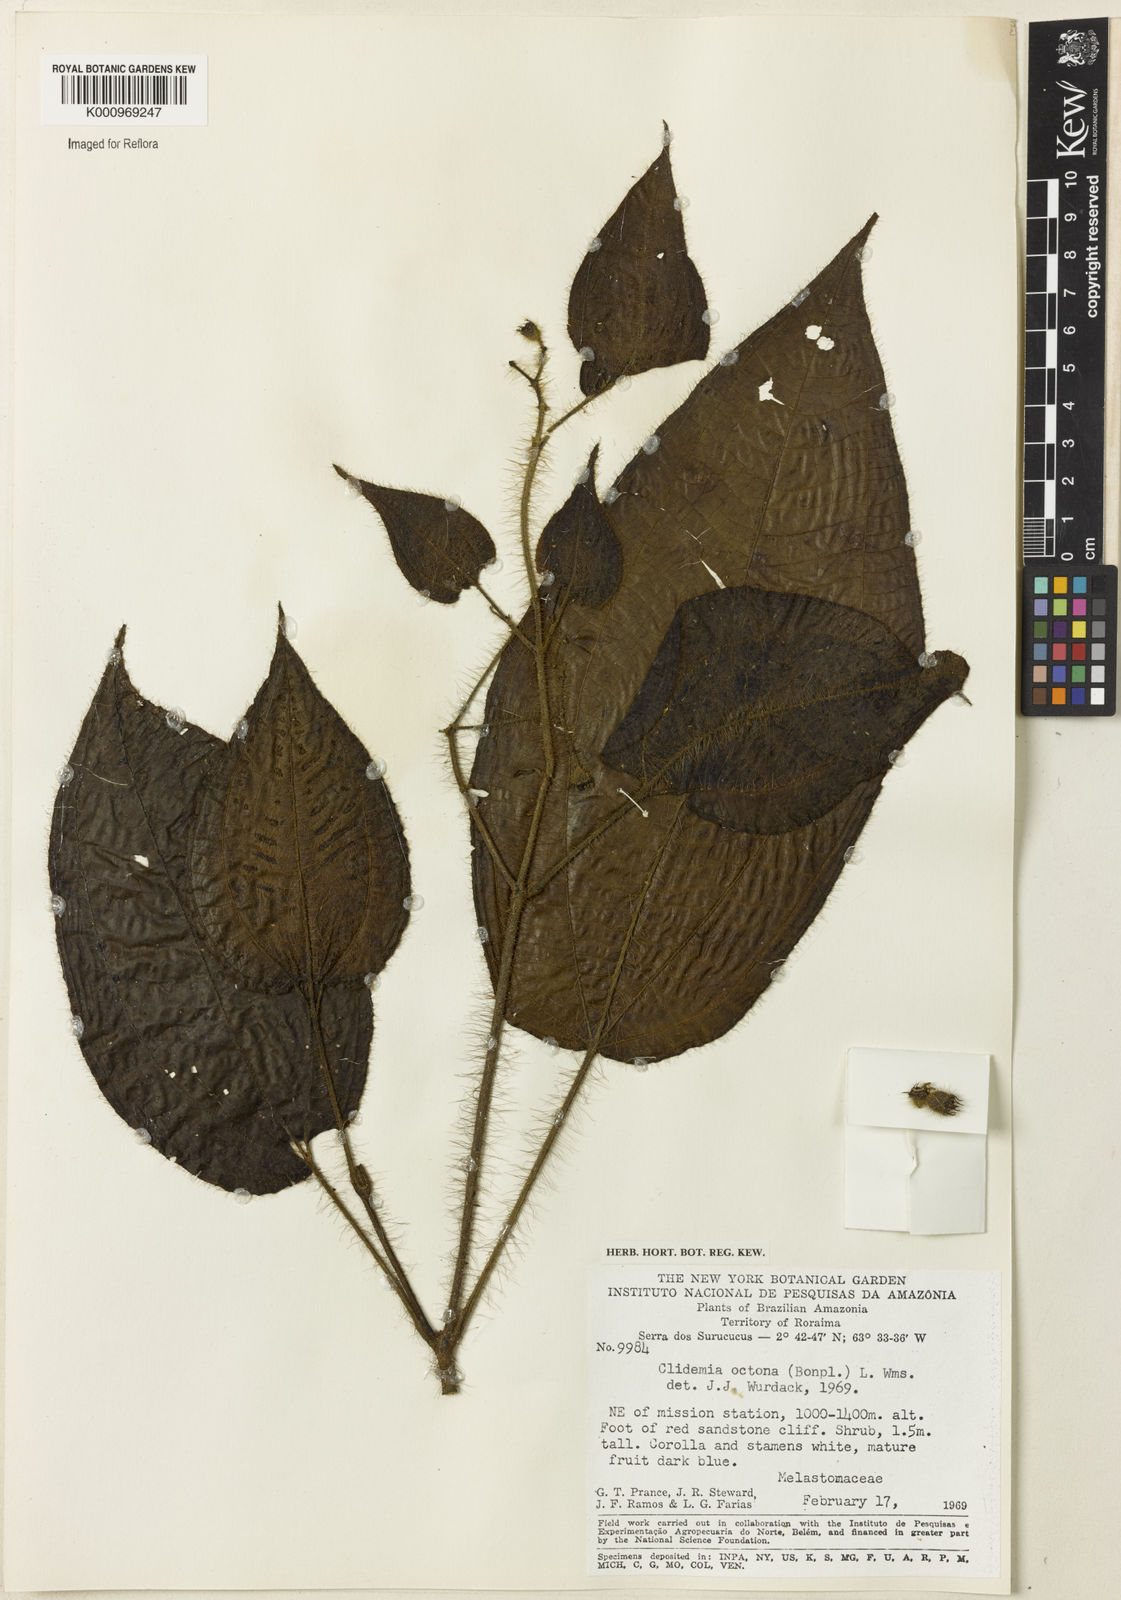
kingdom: Plantae
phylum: Tracheophyta
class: Magnoliopsida
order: Myrtales
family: Melastomataceae
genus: Miconia
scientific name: Miconia octona
